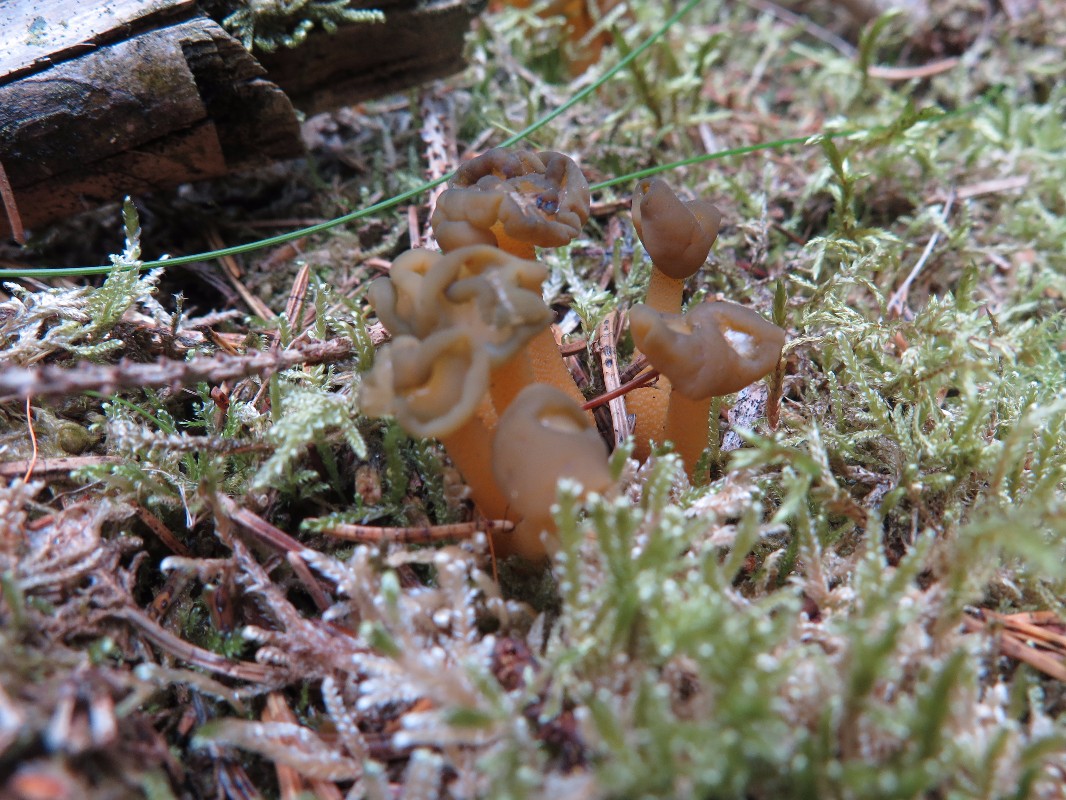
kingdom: Fungi
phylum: Ascomycota
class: Leotiomycetes
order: Leotiales
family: Leotiaceae
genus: Leotia
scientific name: Leotia lubrica
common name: ravsvamp
